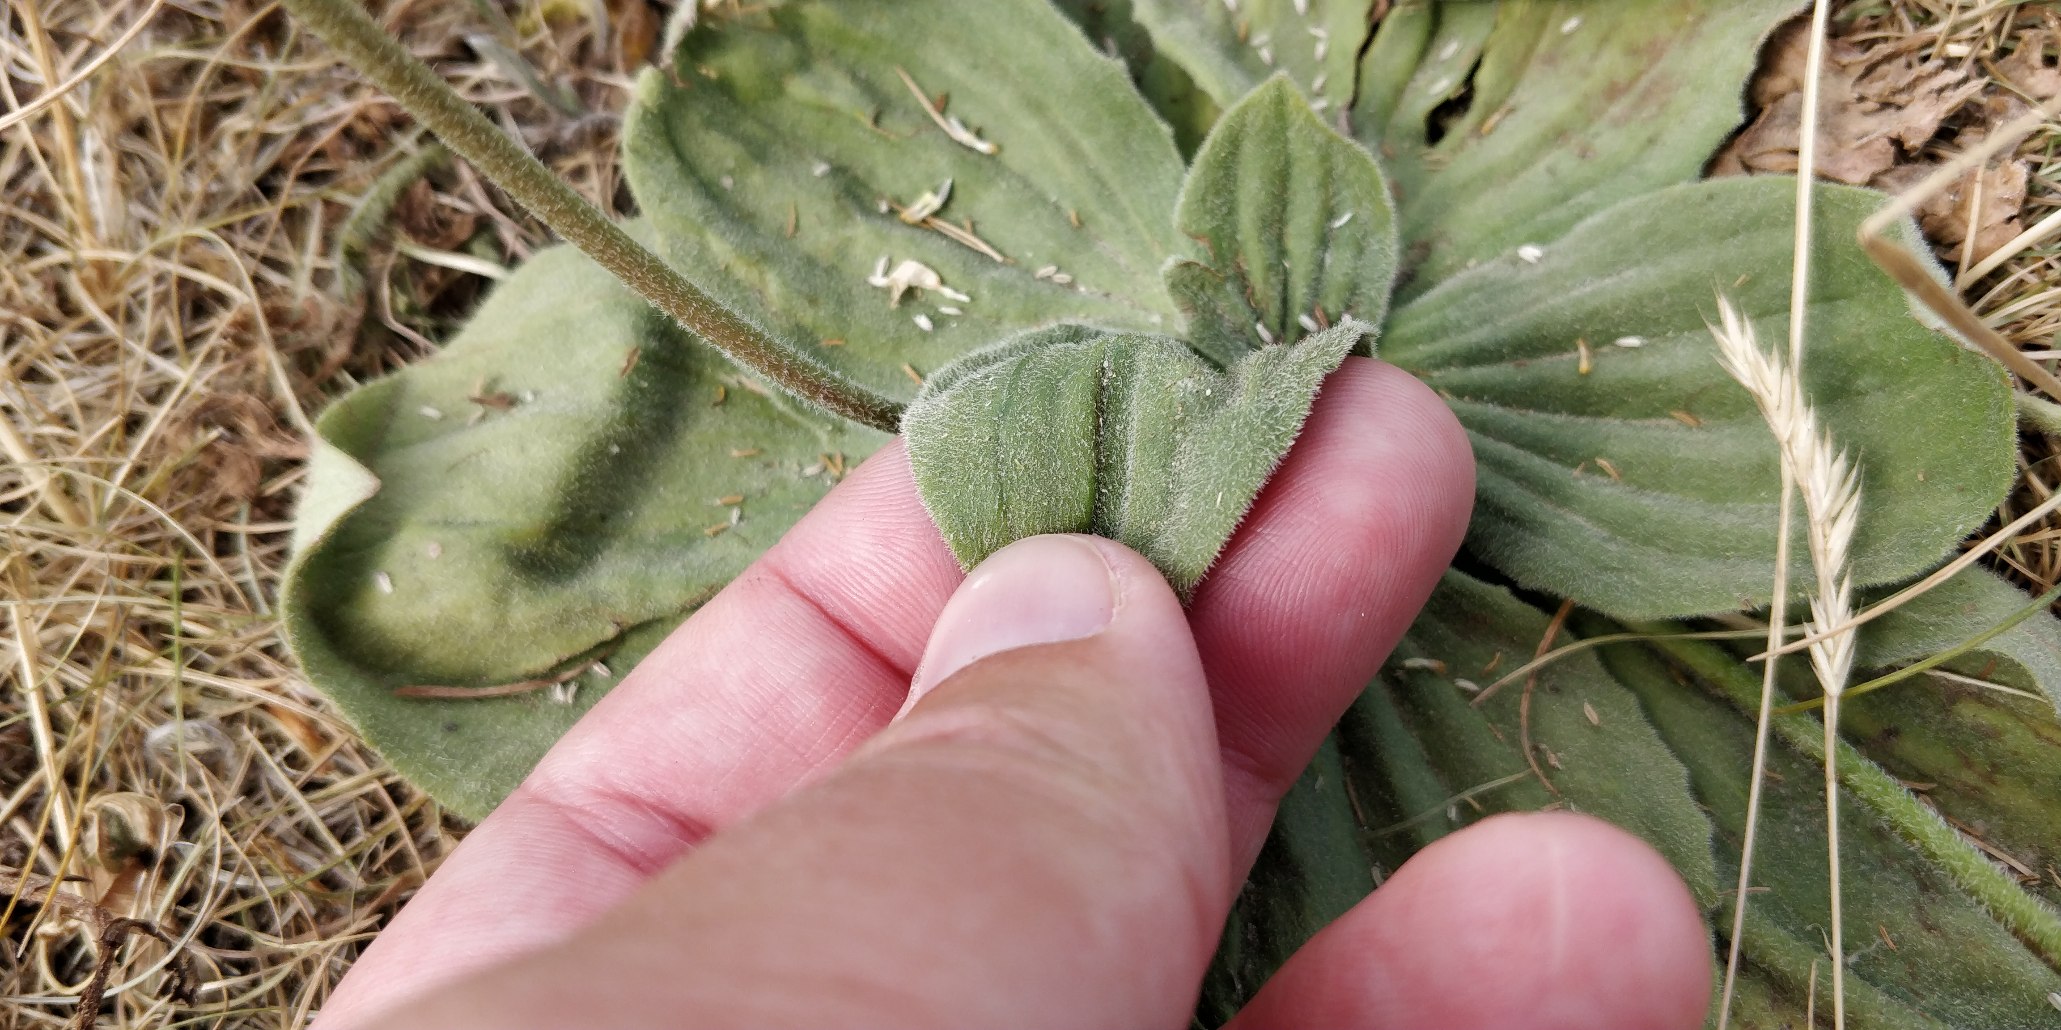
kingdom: Plantae
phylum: Tracheophyta
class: Magnoliopsida
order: Lamiales
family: Plantaginaceae
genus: Plantago
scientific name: Plantago media
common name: Dunet vejbred
